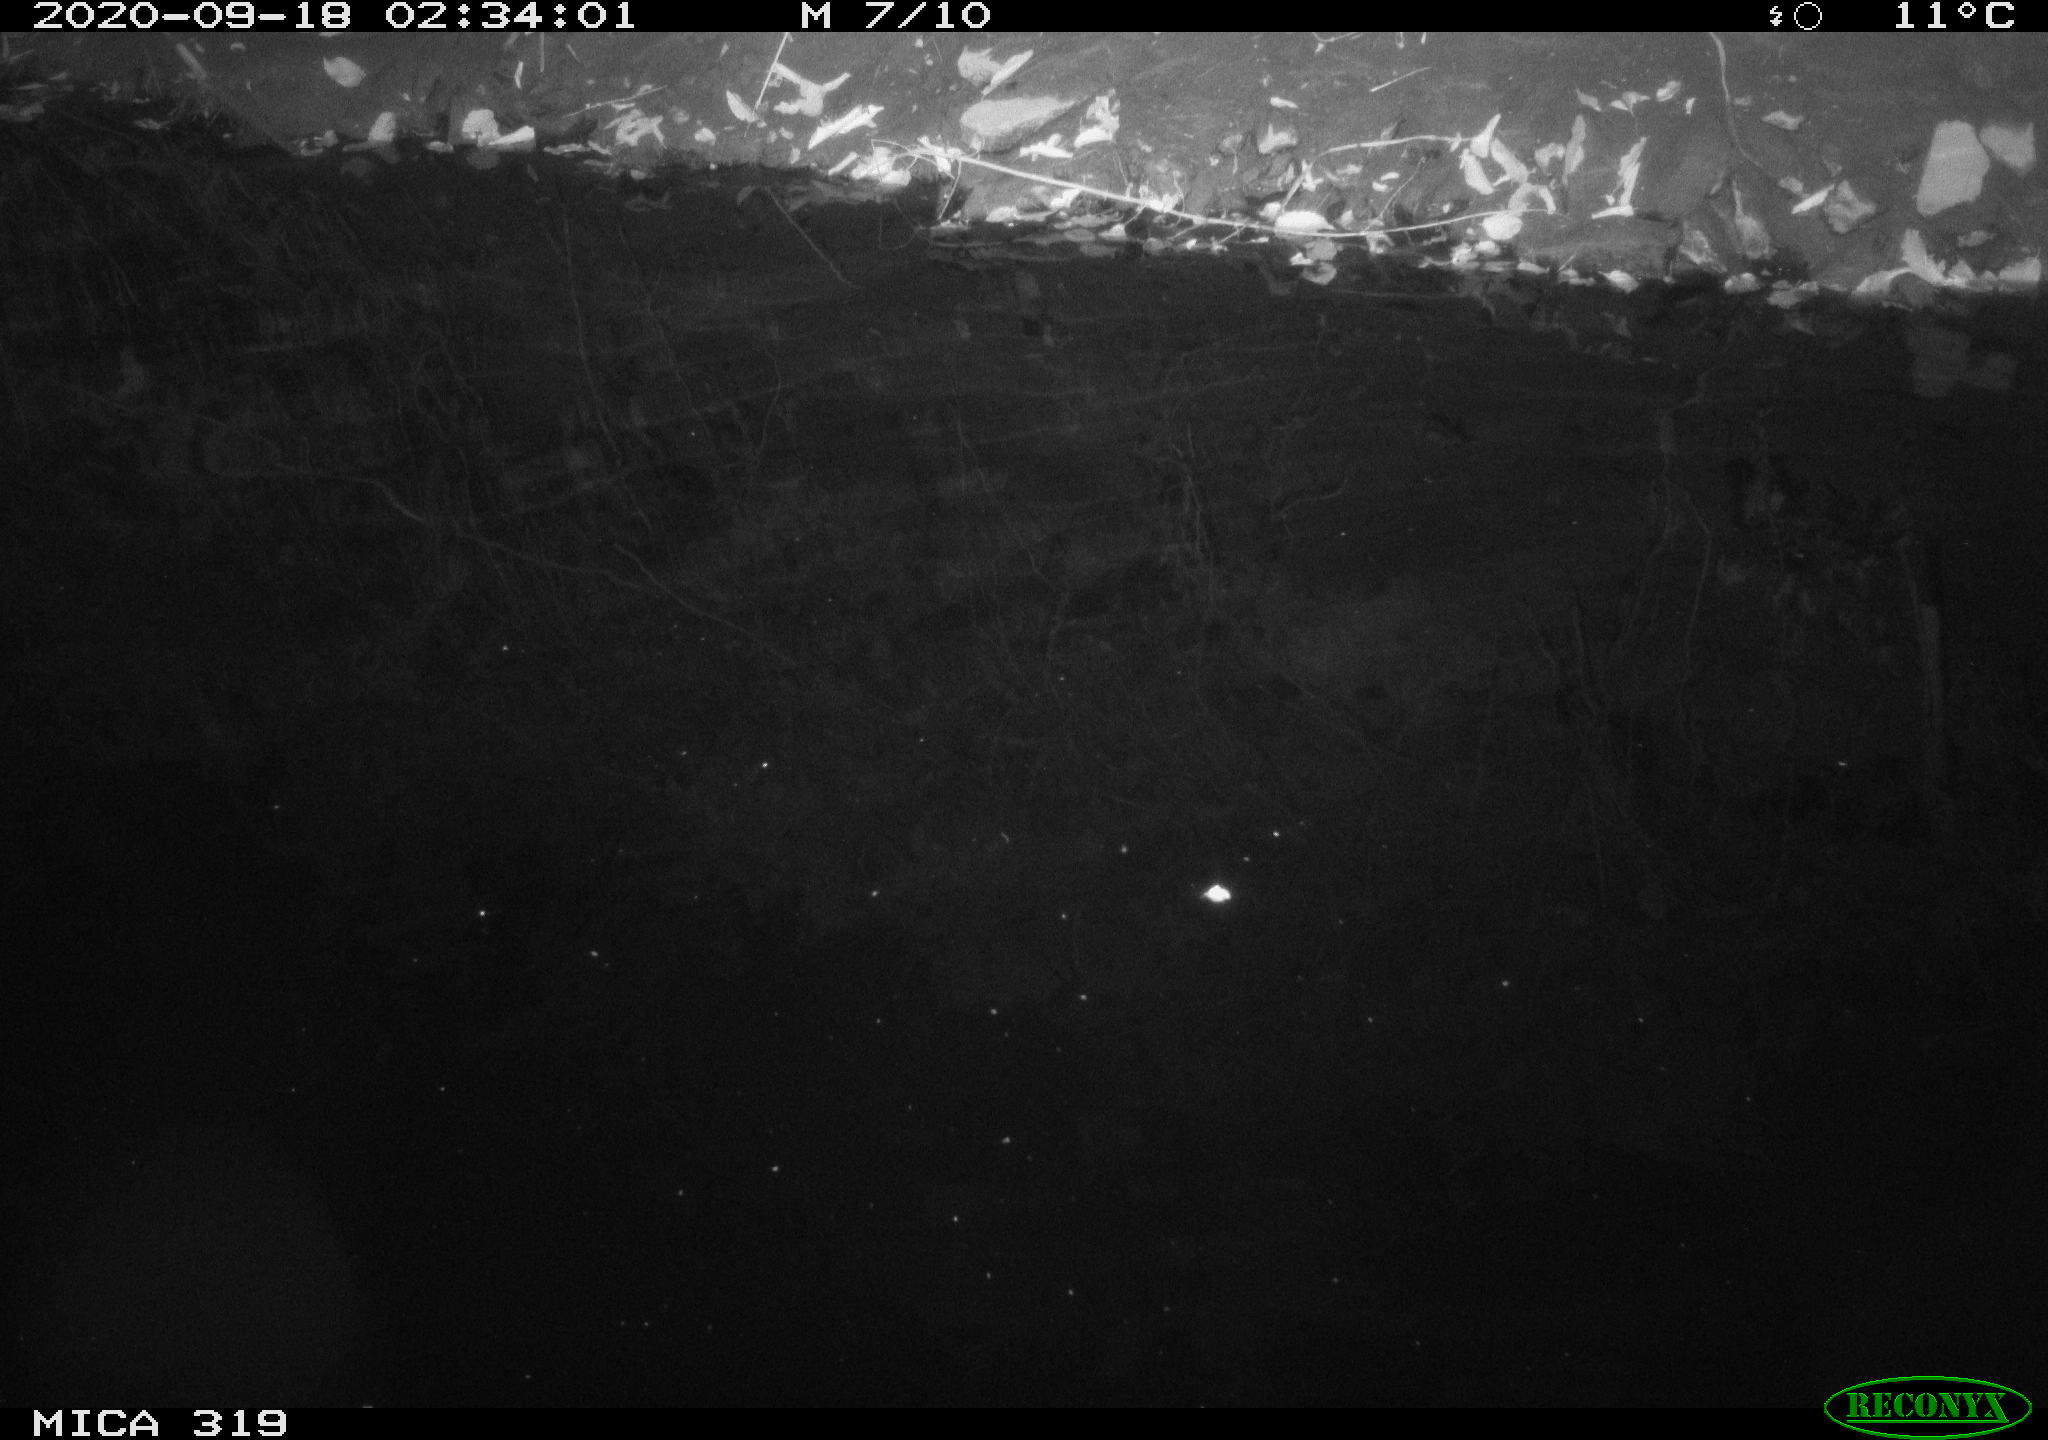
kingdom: Animalia
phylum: Chordata
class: Aves
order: Anseriformes
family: Anatidae
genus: Anas
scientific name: Anas platyrhynchos
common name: Mallard
